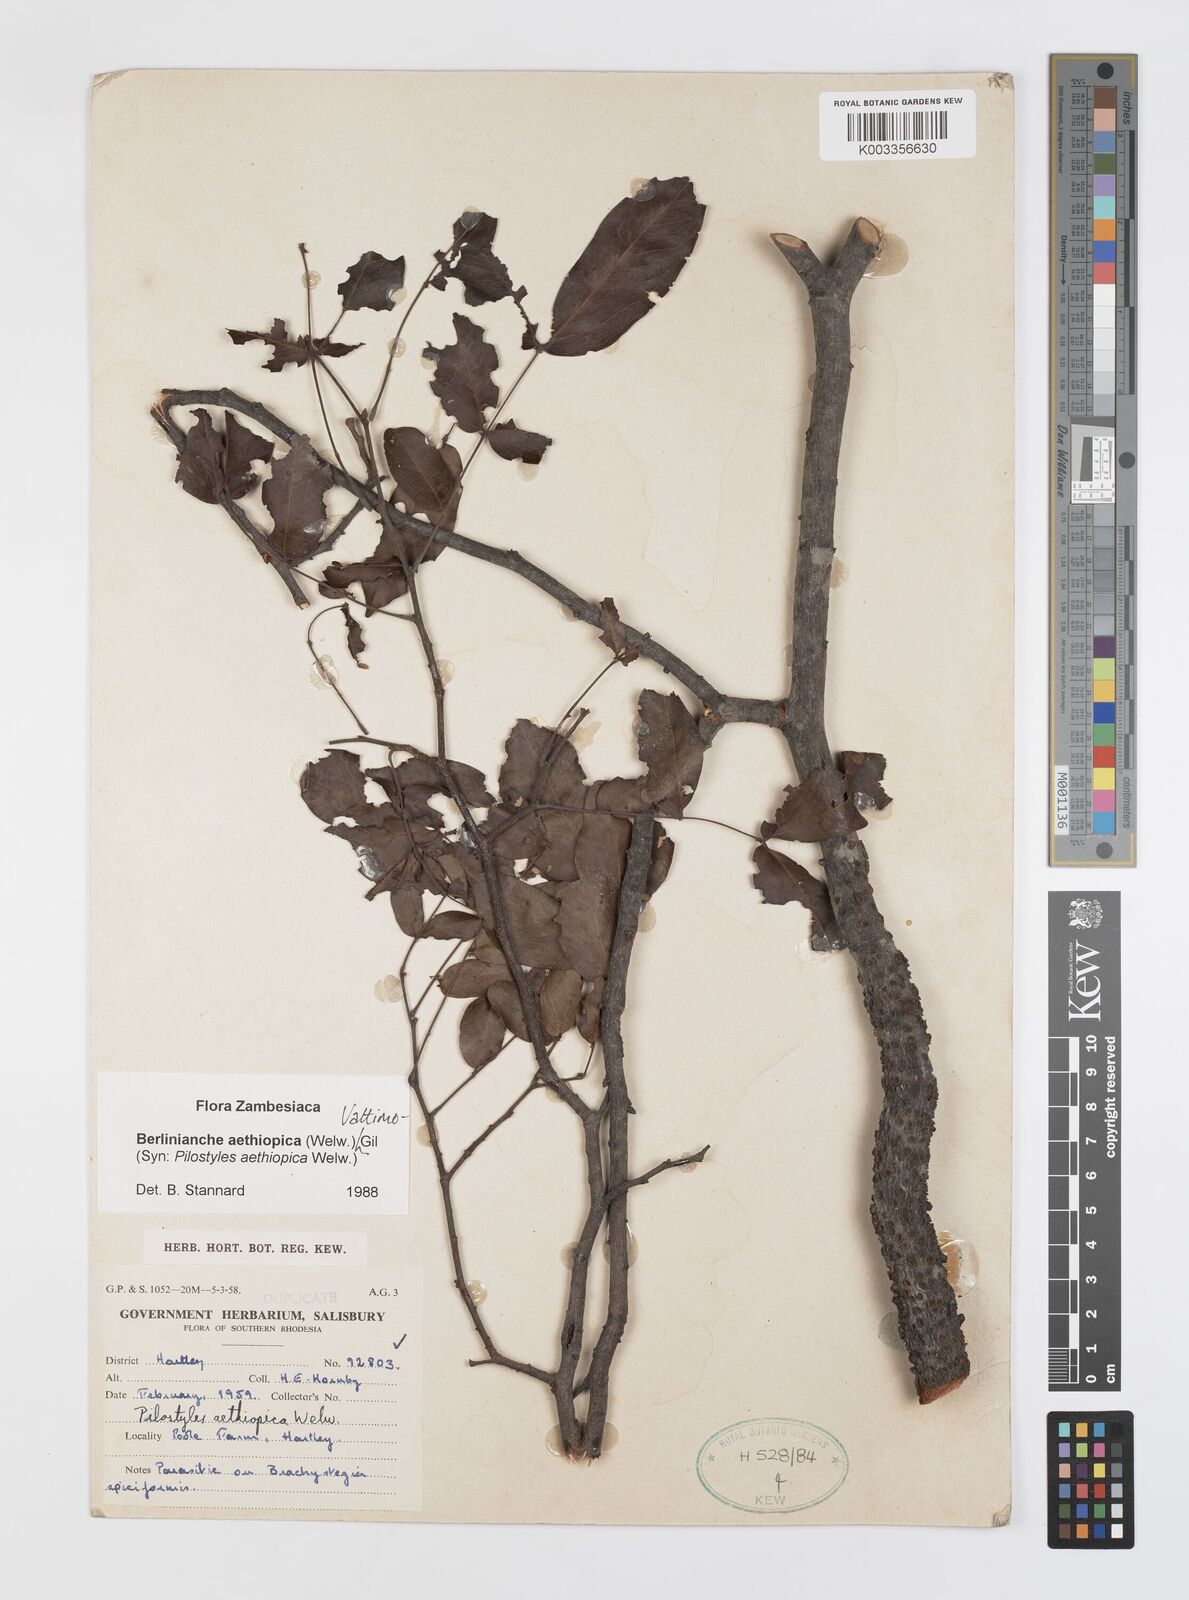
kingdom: Plantae
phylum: Tracheophyta
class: Magnoliopsida
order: Cucurbitales
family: Apodanthaceae
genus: Pilostyles
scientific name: Pilostyles aethiopica
